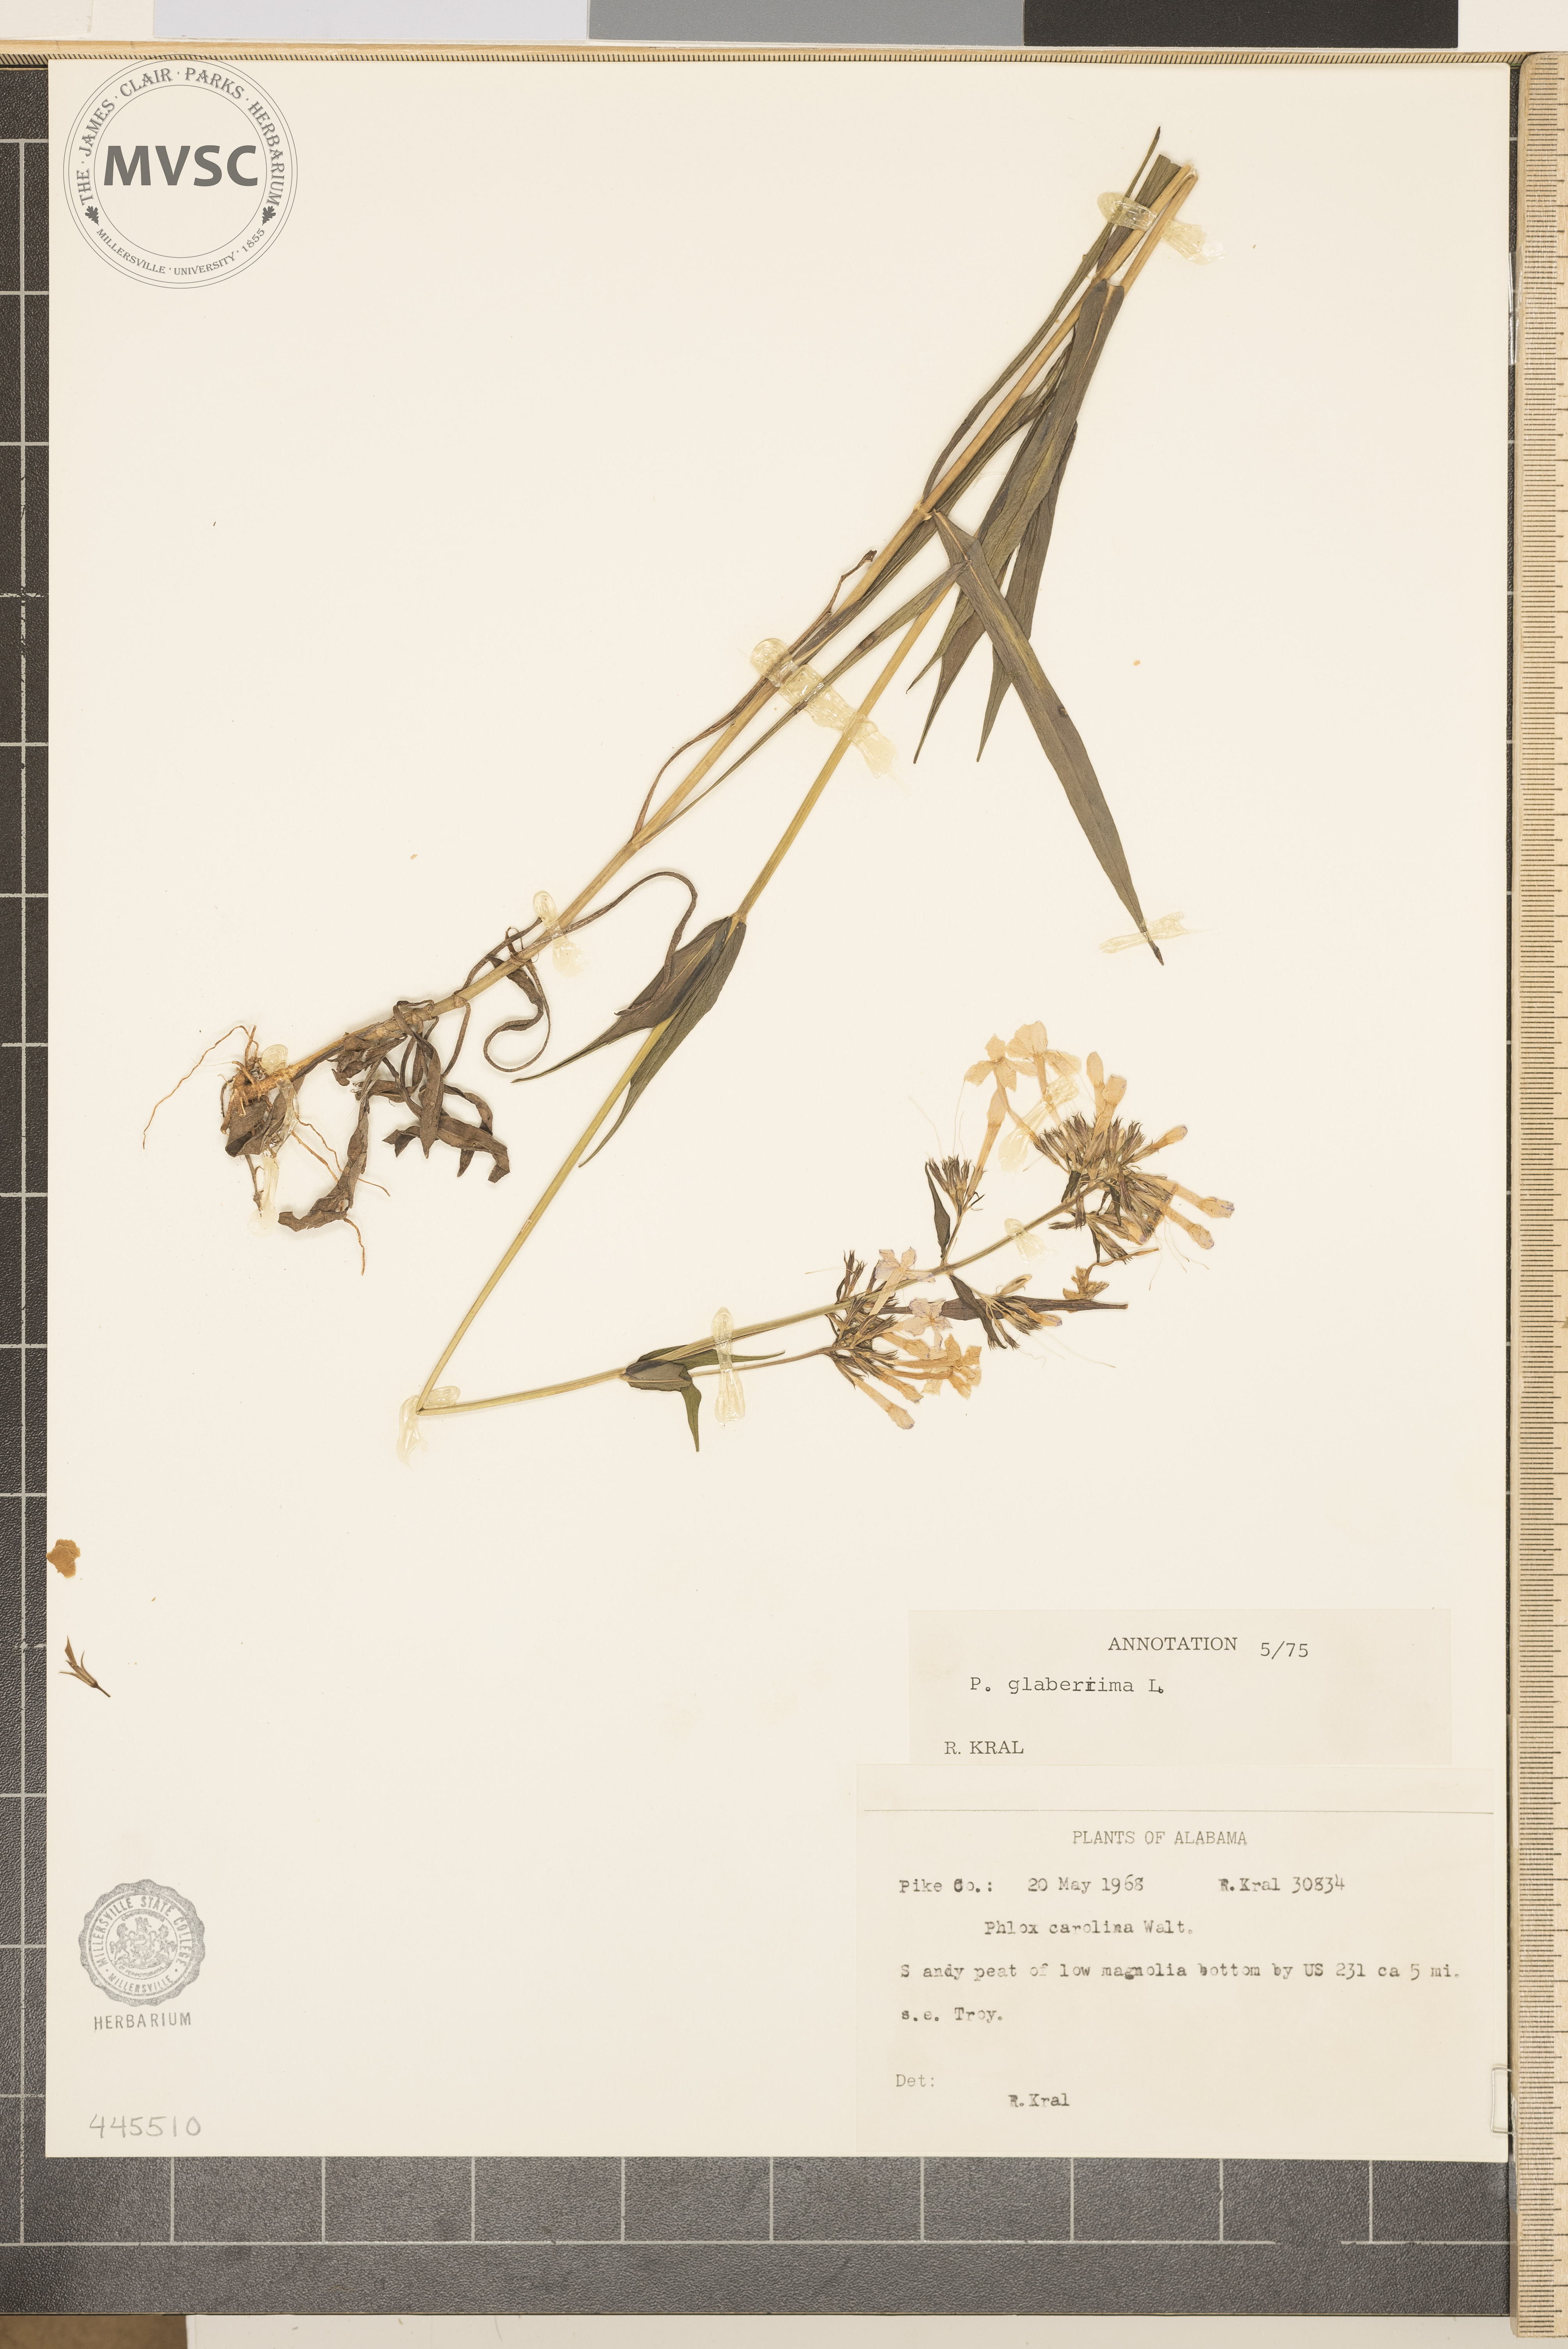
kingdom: Plantae
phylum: Tracheophyta
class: Magnoliopsida
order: Ericales
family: Polemoniaceae
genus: Phlox
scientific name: Phlox glaberrima
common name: Smooth phlox
